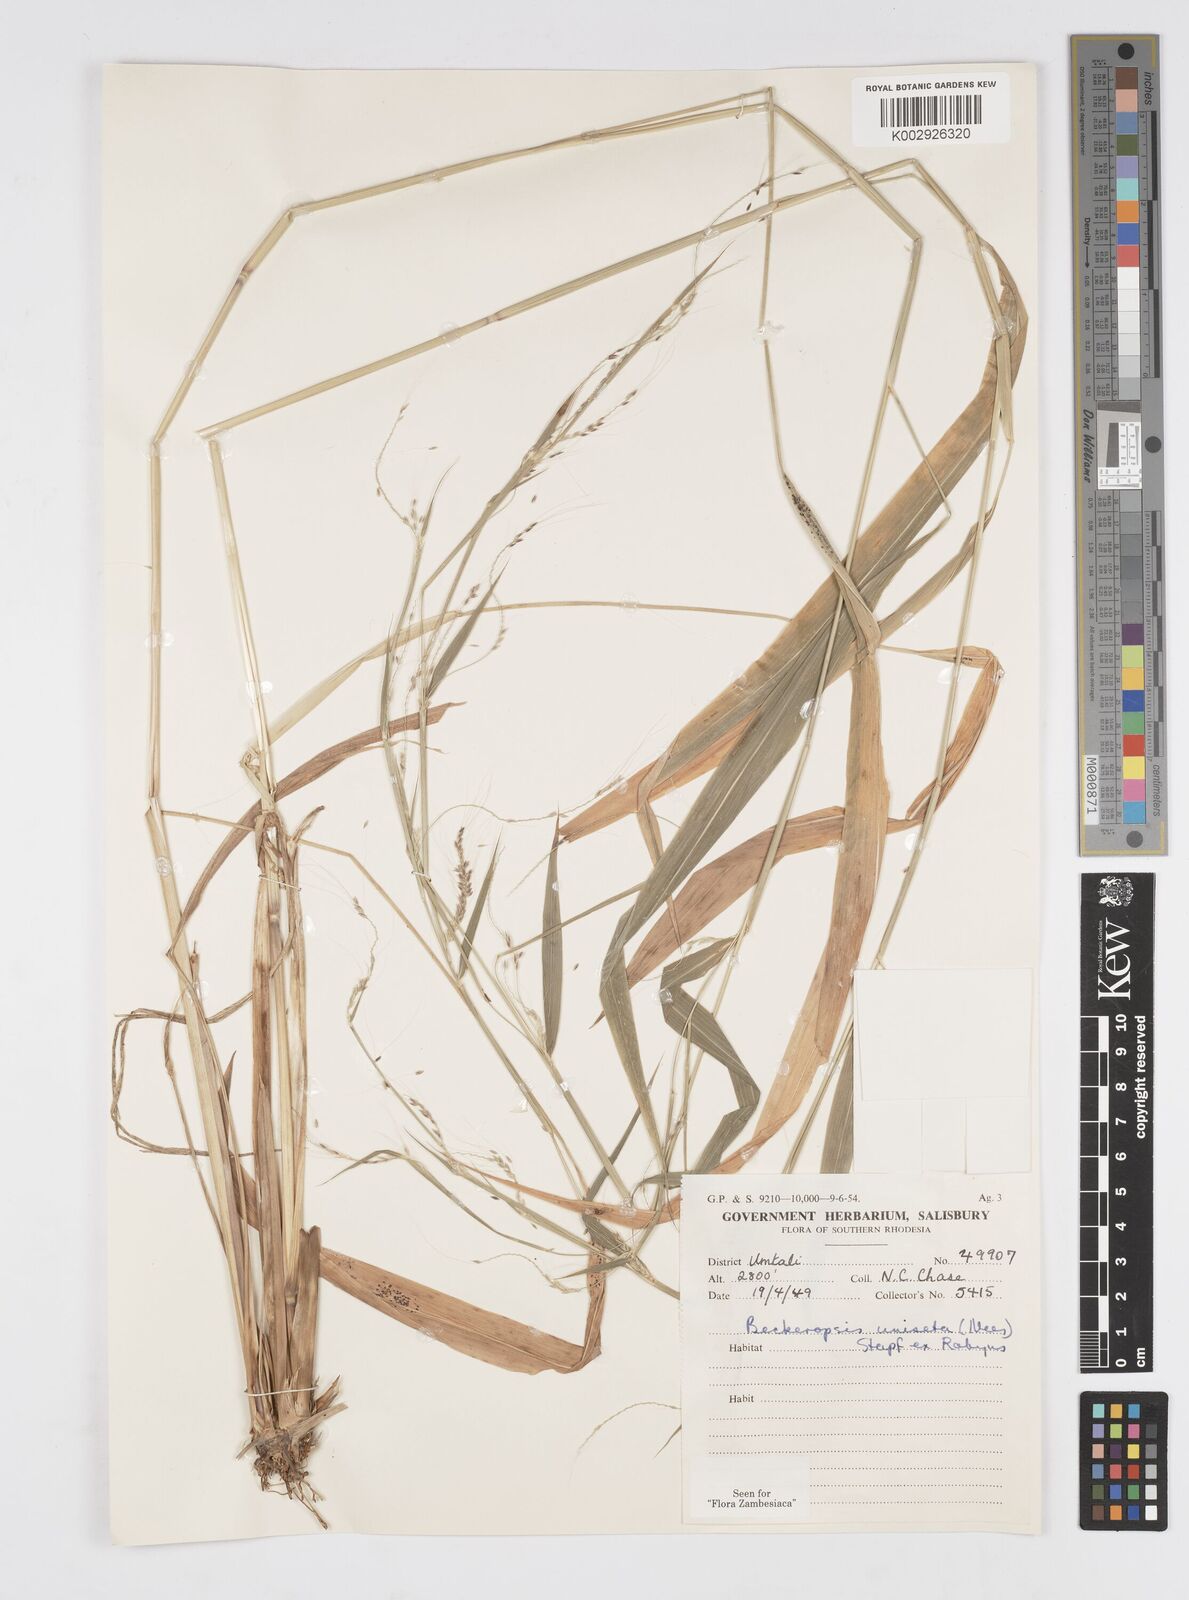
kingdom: Plantae
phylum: Tracheophyta
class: Liliopsida
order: Poales
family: Poaceae
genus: Cenchrus
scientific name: Cenchrus unisetus
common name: Natal grass
